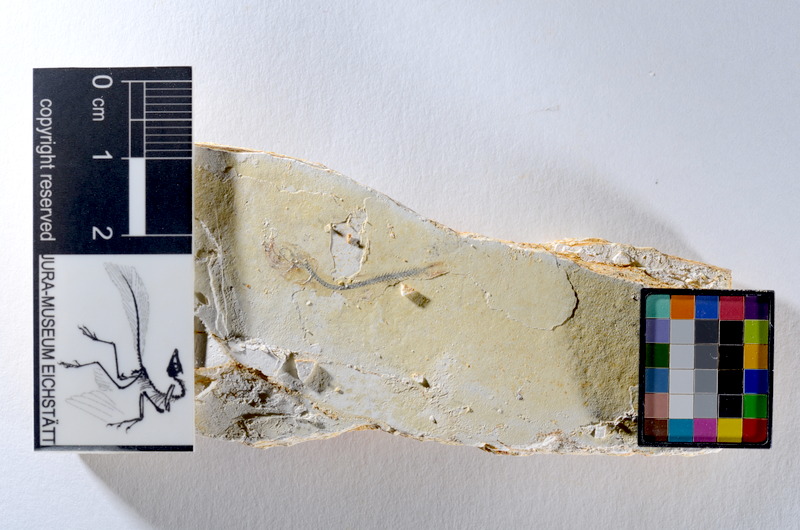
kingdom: Animalia
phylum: Chordata
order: Salmoniformes
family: Orthogonikleithridae
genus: Orthogonikleithrus
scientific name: Orthogonikleithrus hoelli
